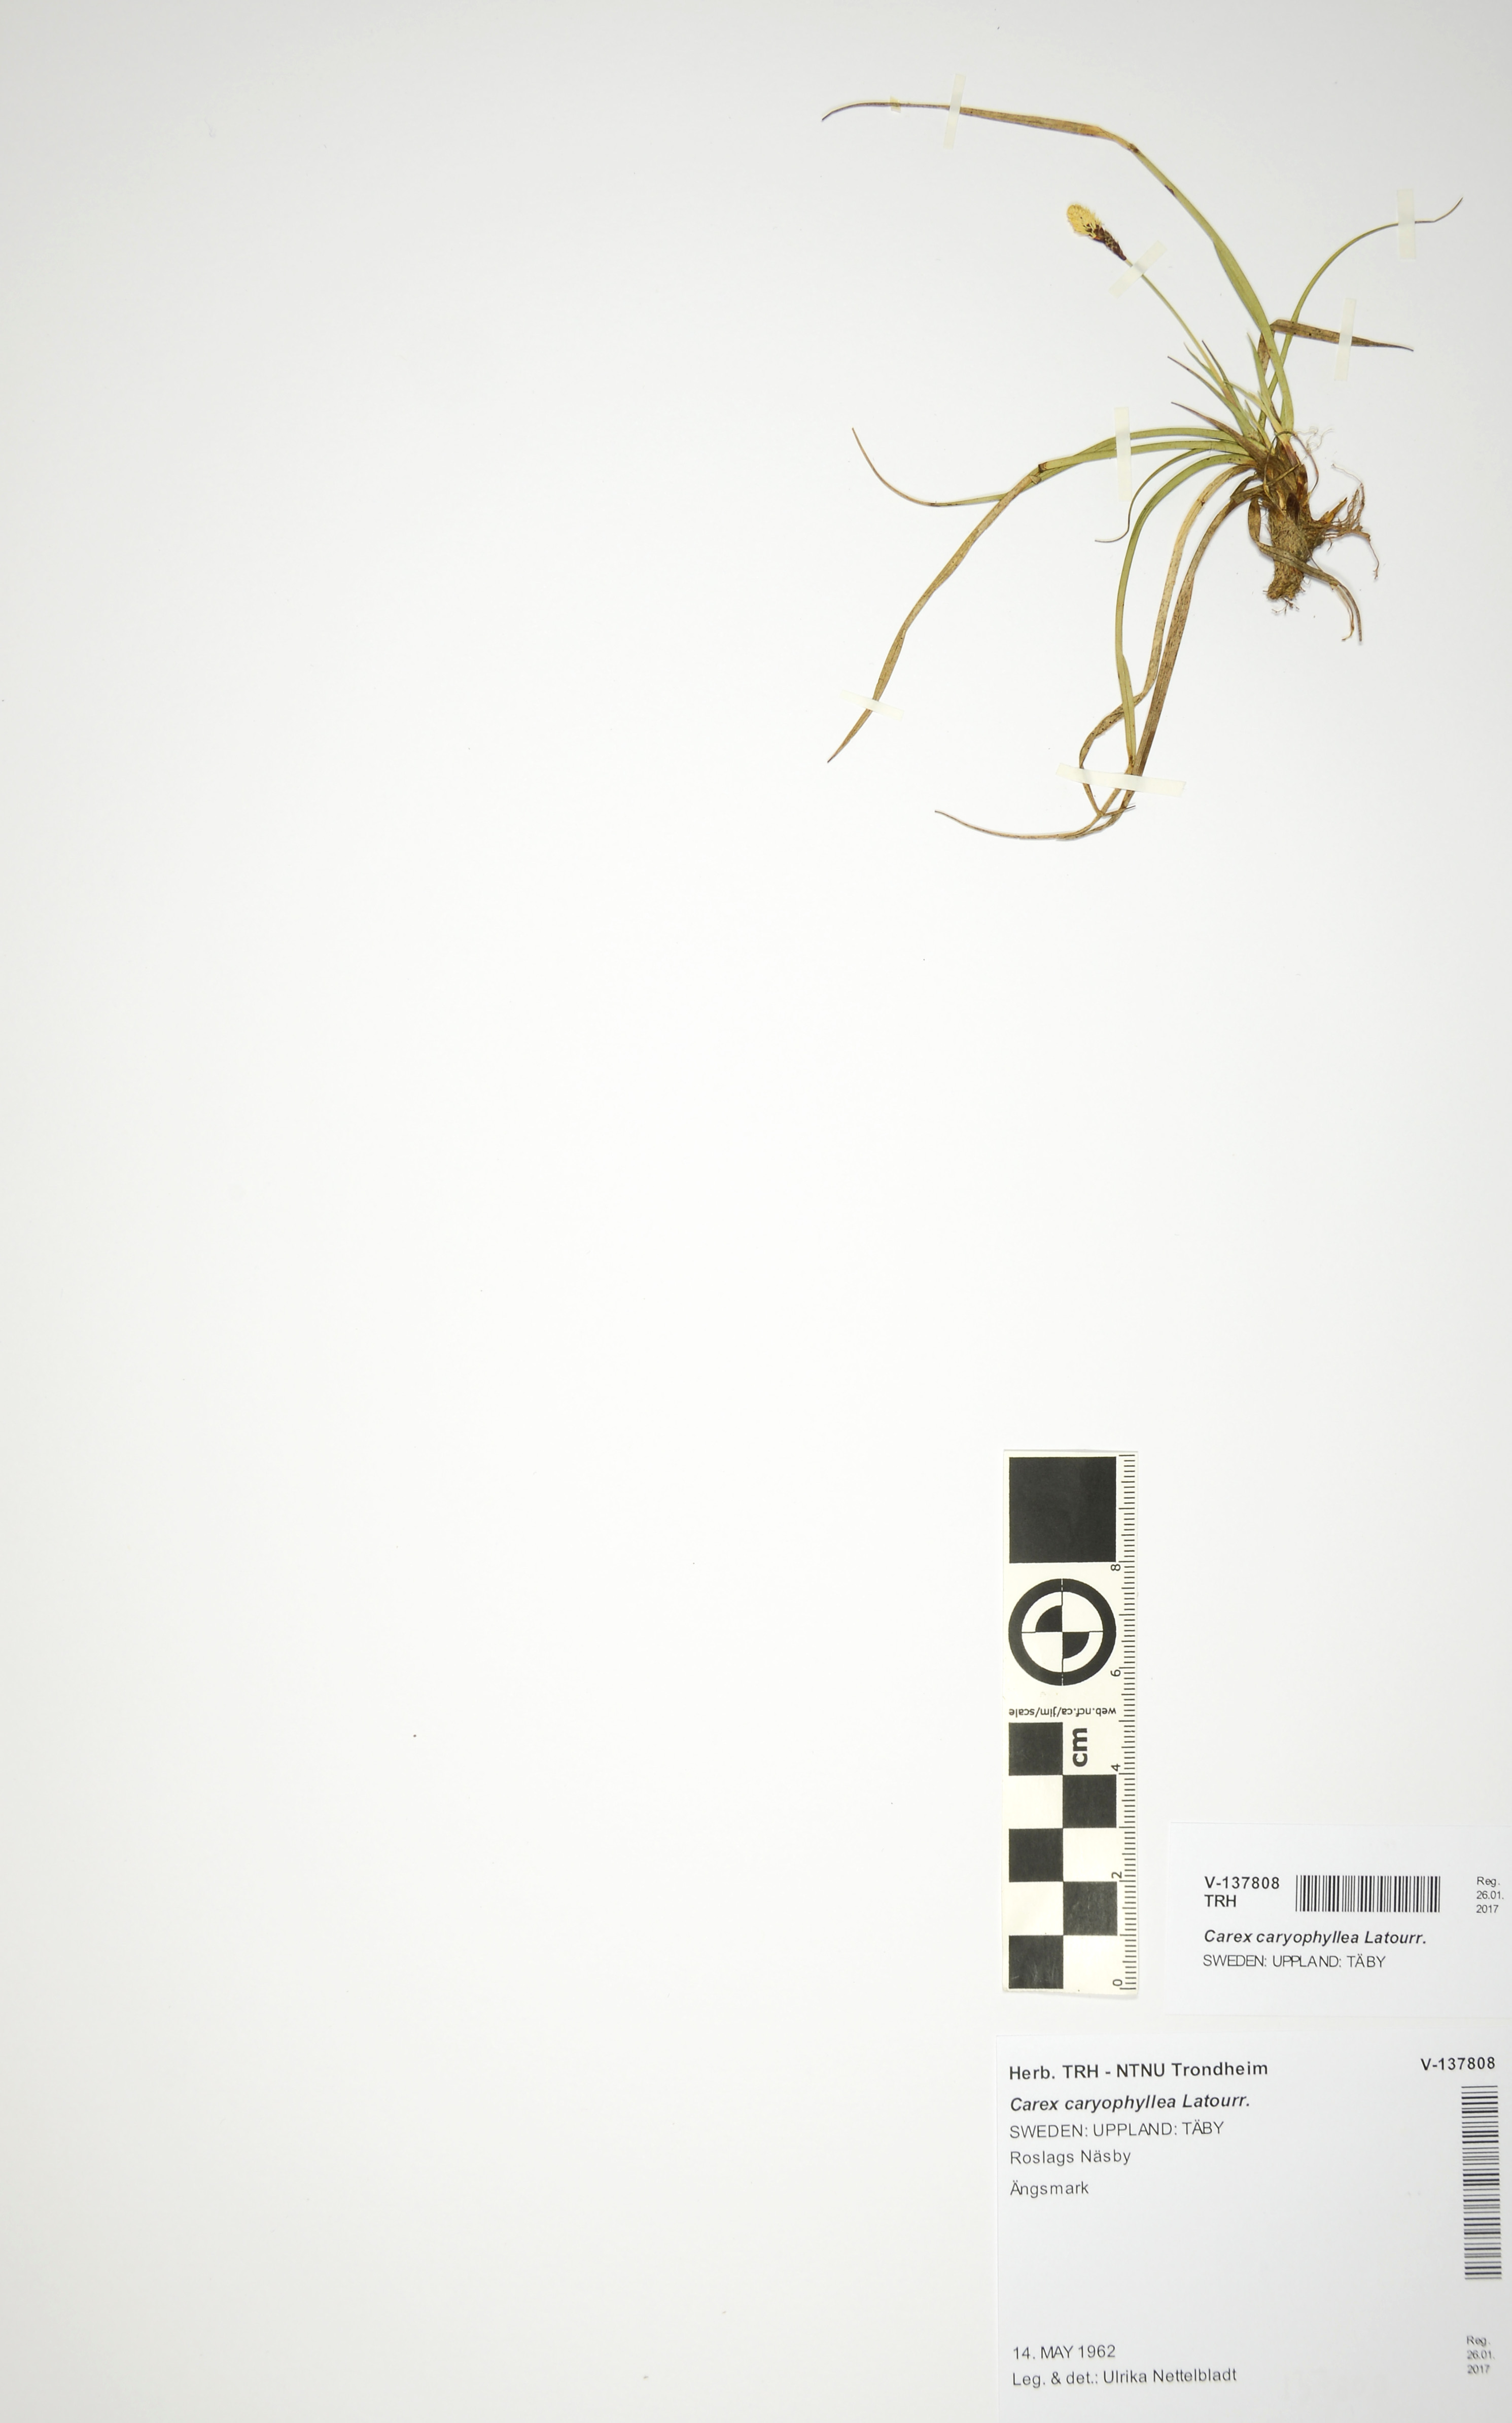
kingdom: Plantae
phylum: Tracheophyta
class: Liliopsida
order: Poales
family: Cyperaceae
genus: Carex
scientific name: Carex caryophyllea
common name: Spring sedge
